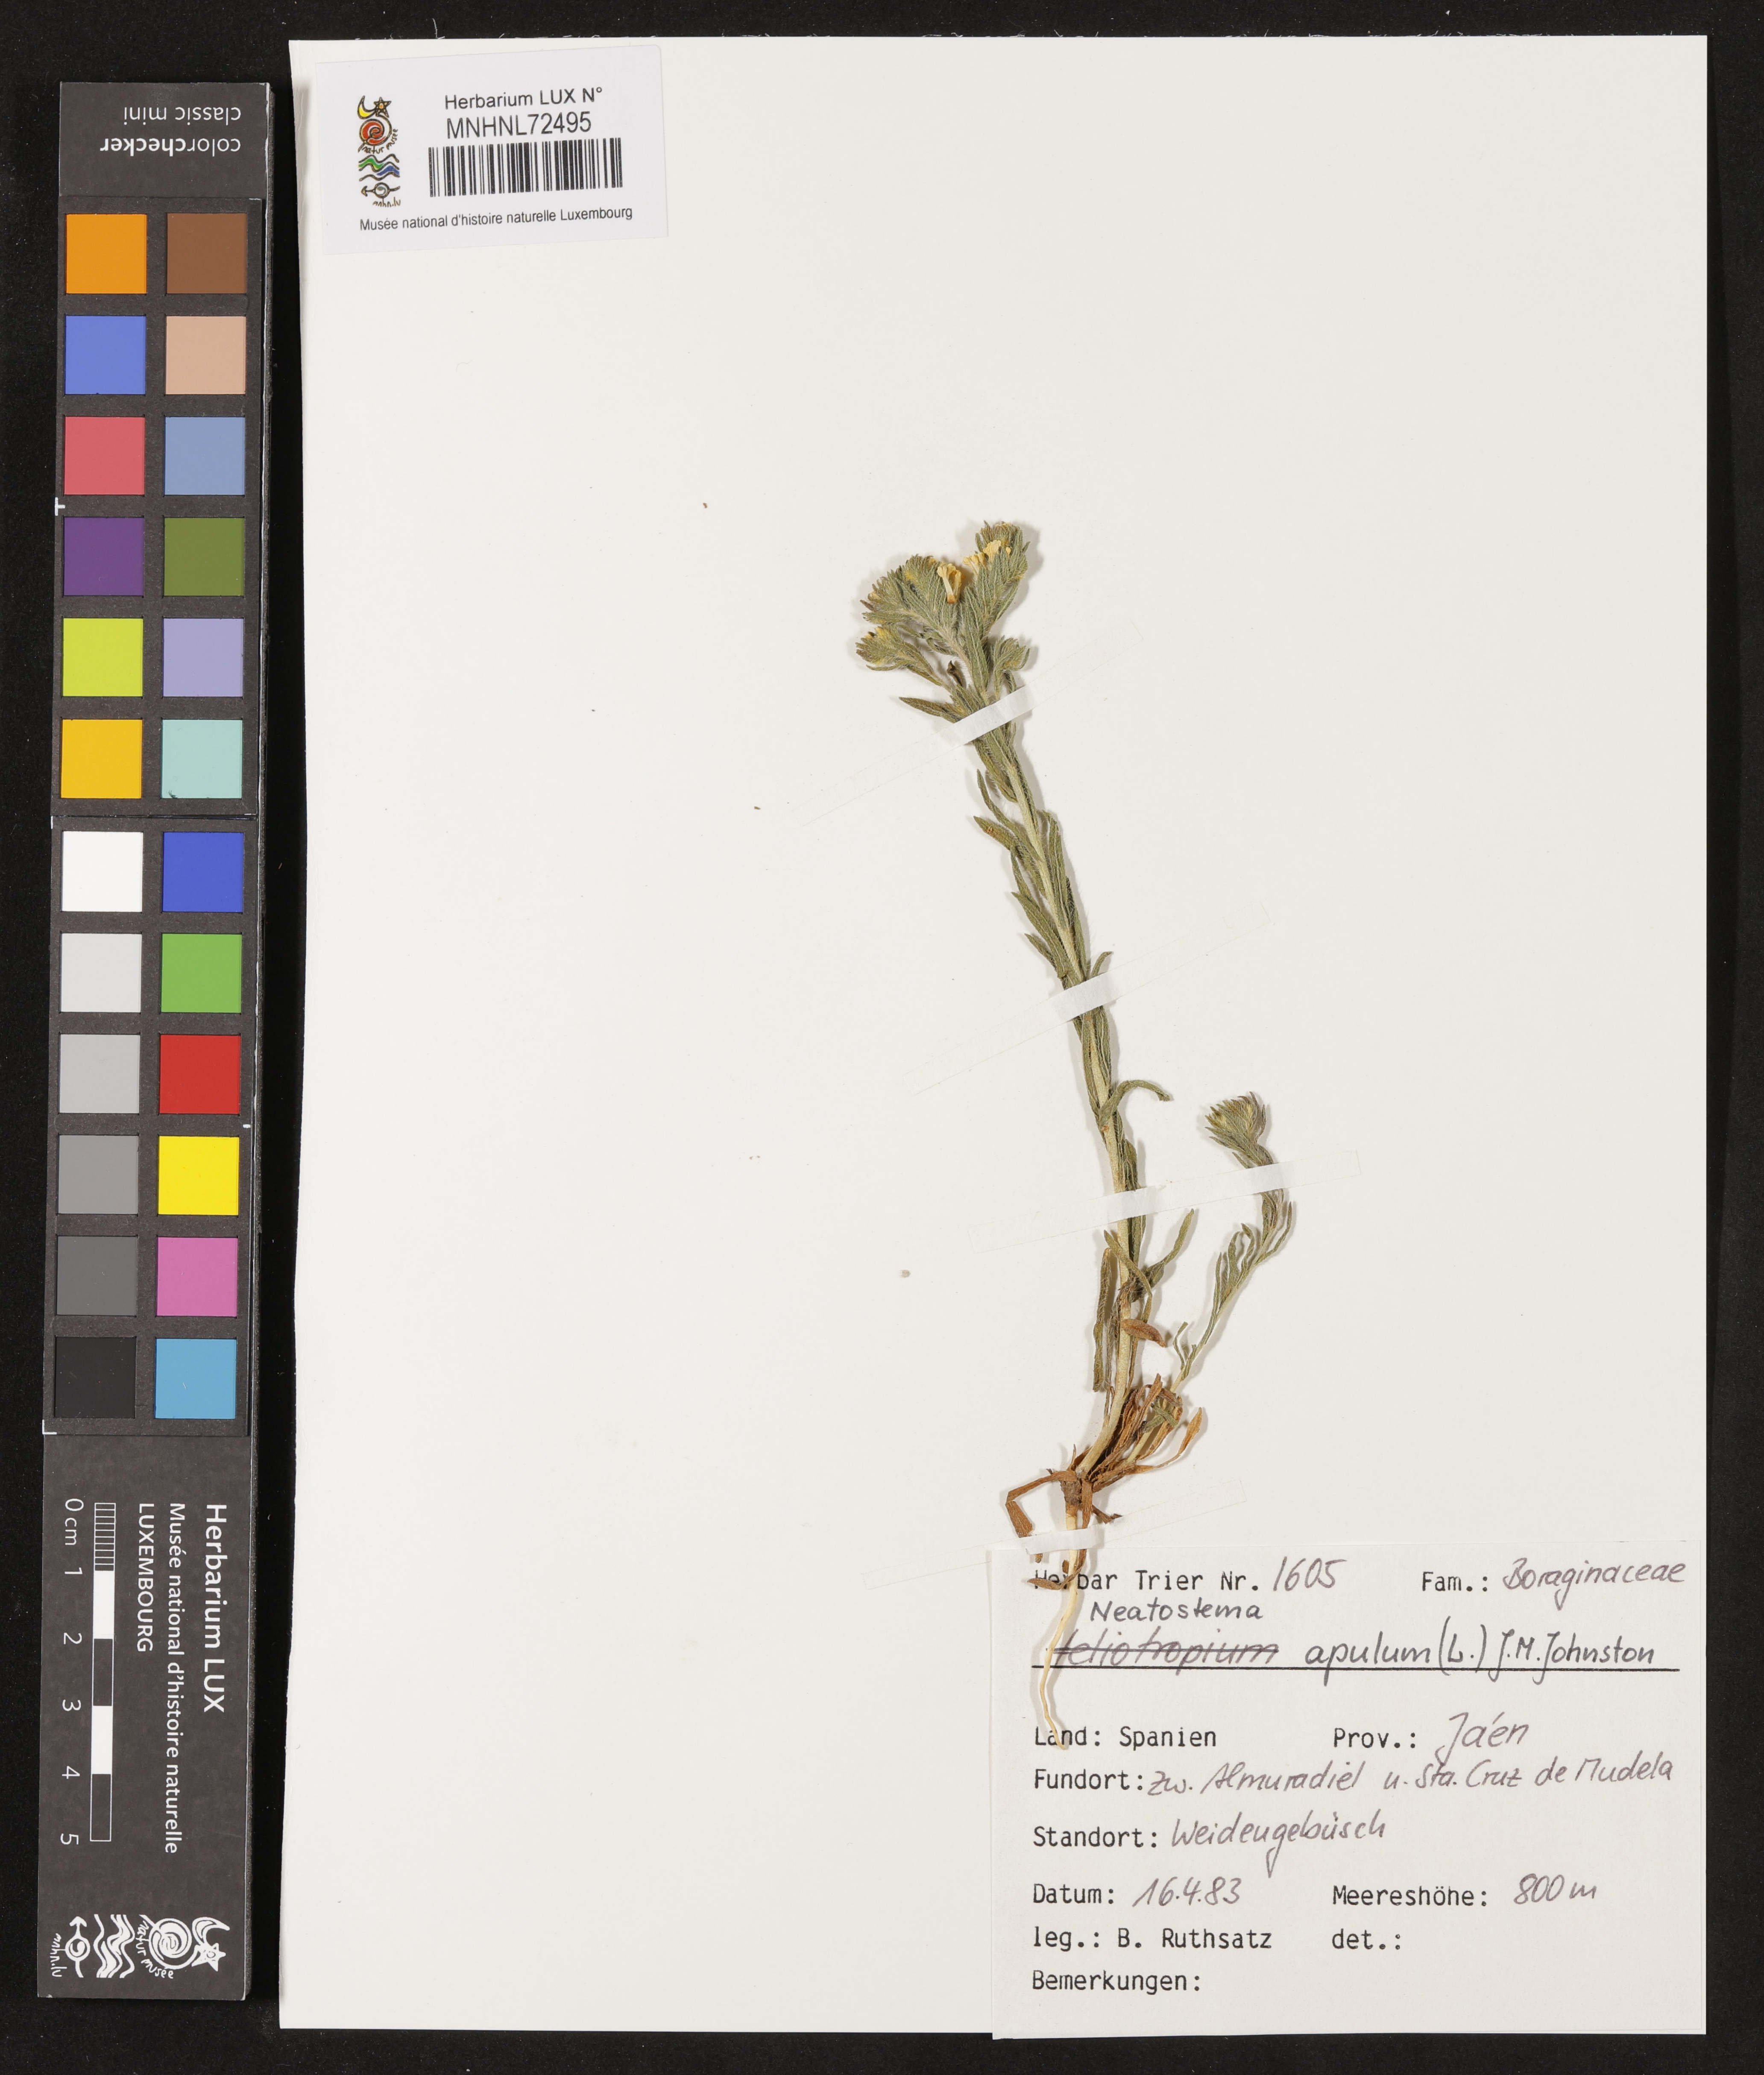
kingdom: Plantae
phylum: Tracheophyta
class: Magnoliopsida
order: Boraginales
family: Boraginaceae
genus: Neatostema
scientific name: Neatostema apulum
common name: Hairy sheepweed
